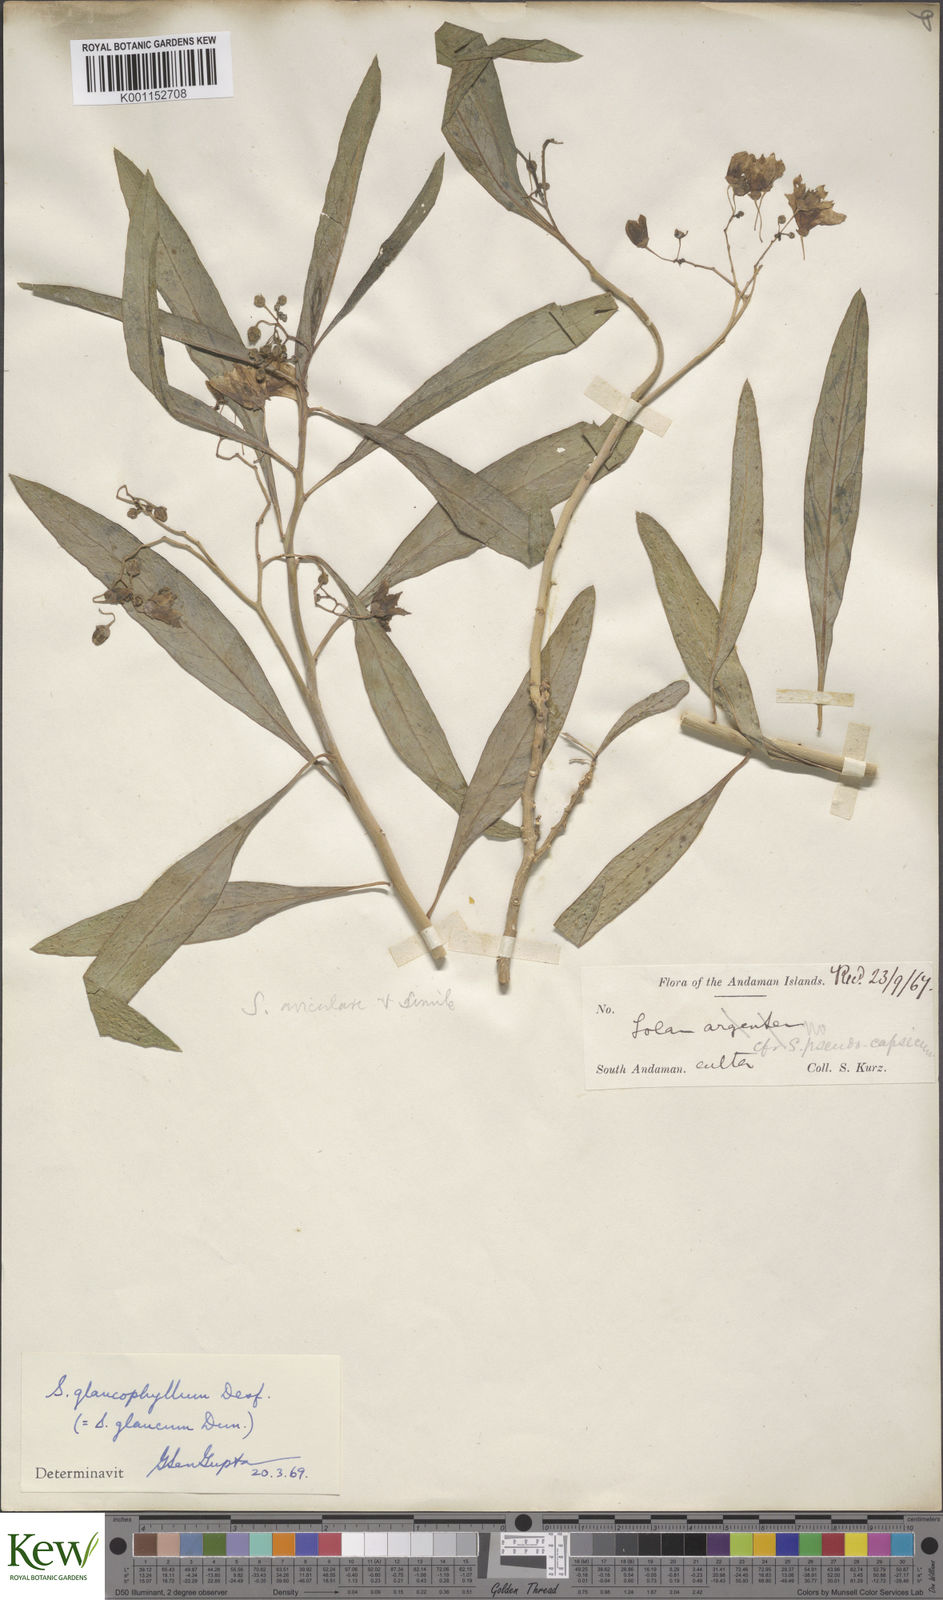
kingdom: Plantae
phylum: Tracheophyta
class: Magnoliopsida
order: Solanales
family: Solanaceae
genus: Solanum
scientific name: Solanum aviculare
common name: New zealand nightshade
